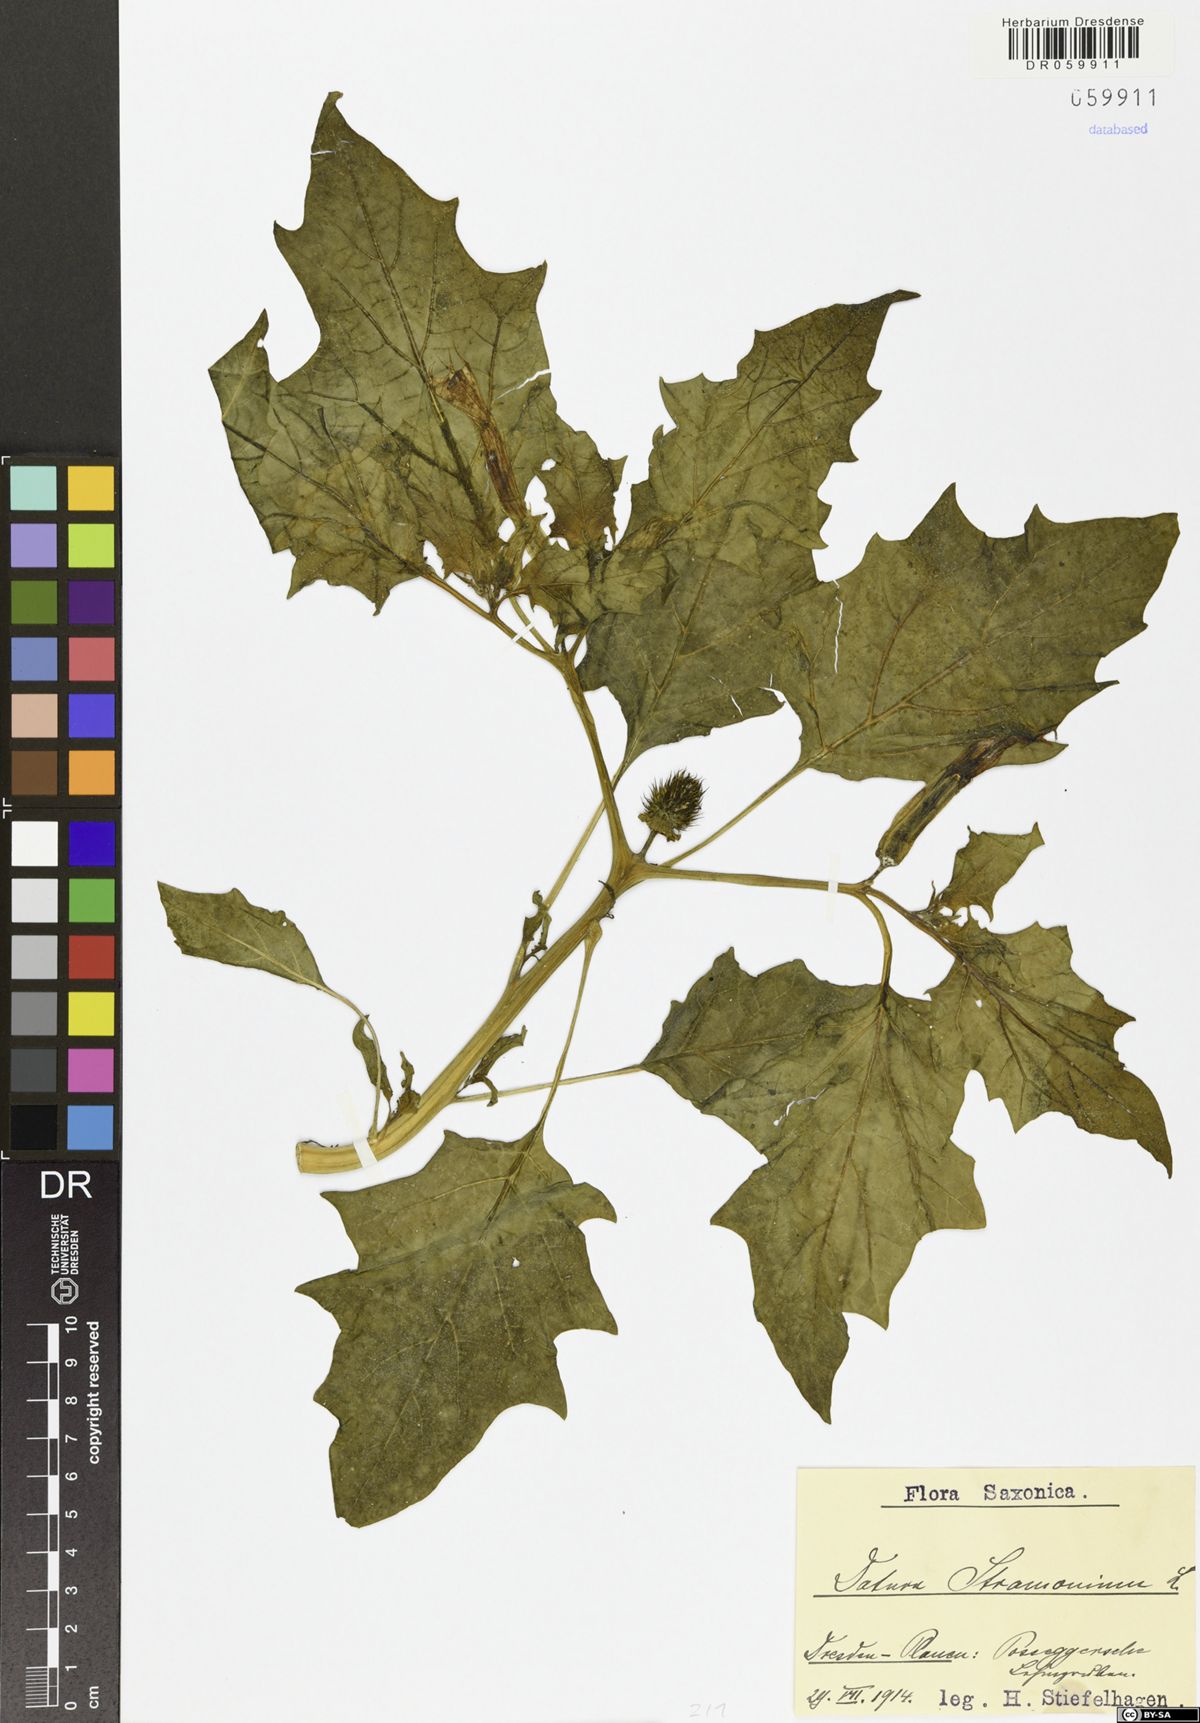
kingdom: Plantae
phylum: Tracheophyta
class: Magnoliopsida
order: Solanales
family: Solanaceae
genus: Datura
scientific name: Datura stramonium
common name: Thorn-apple
